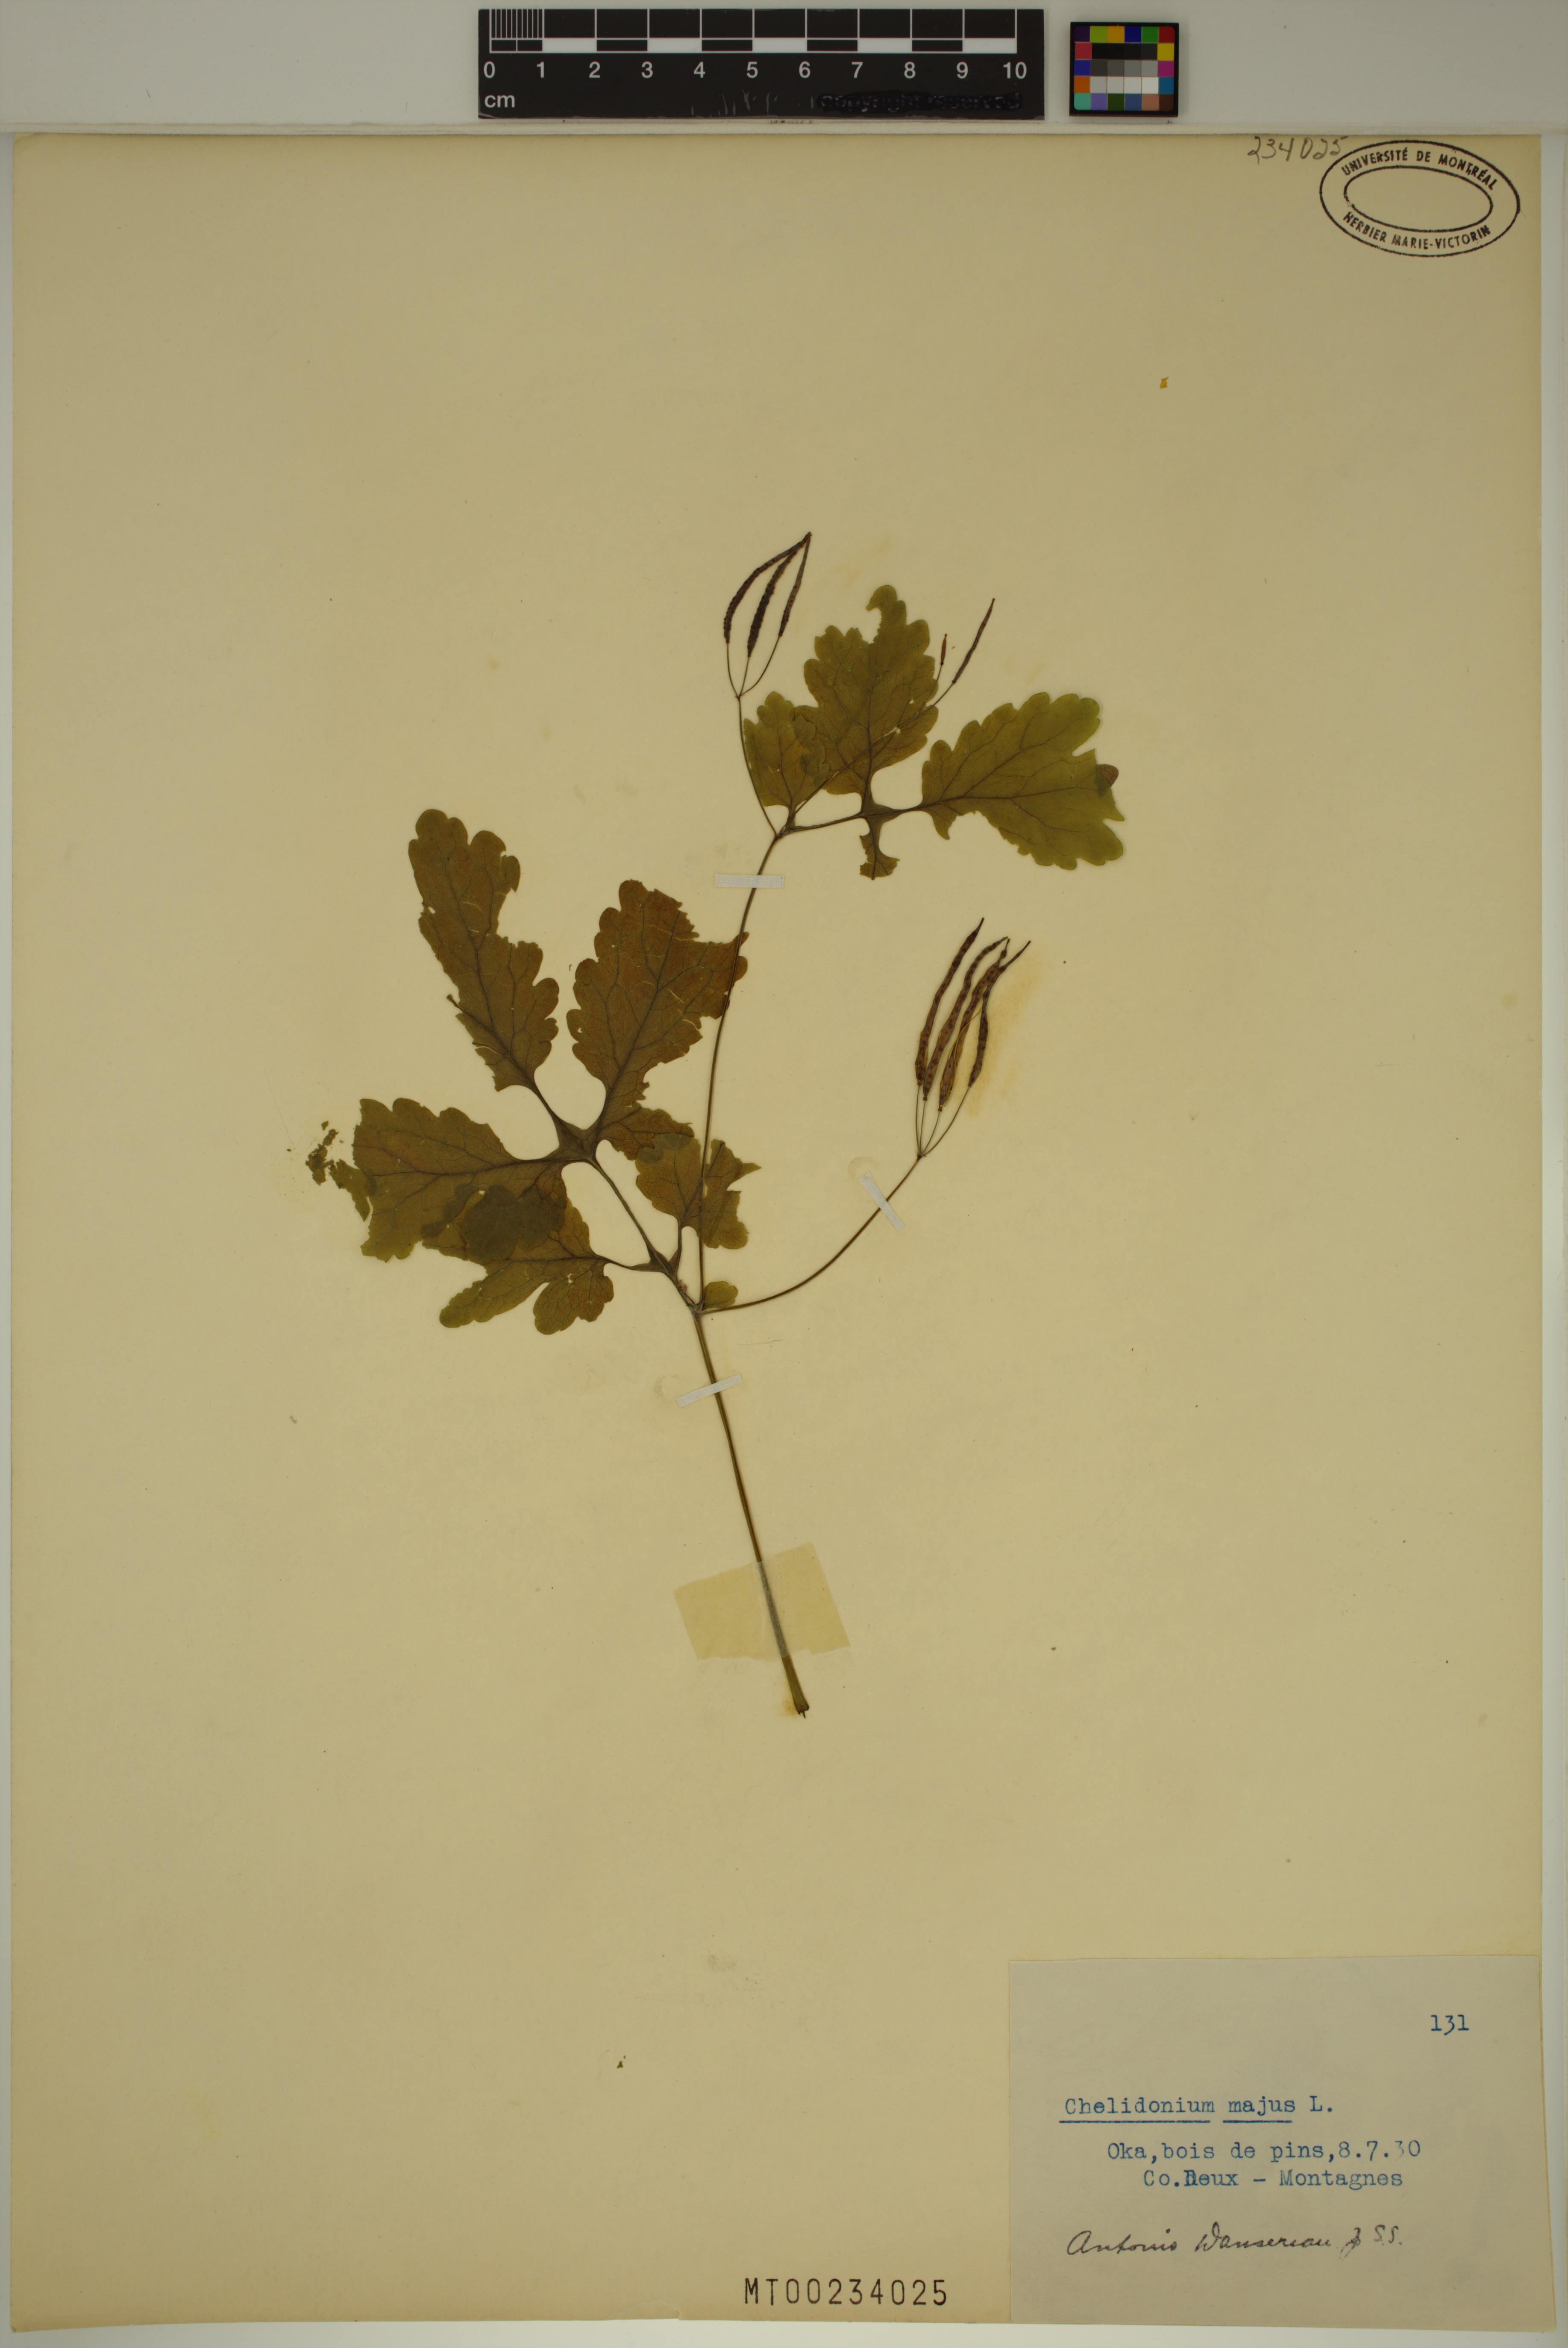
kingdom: Plantae
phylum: Tracheophyta
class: Magnoliopsida
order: Ranunculales
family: Papaveraceae
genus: Chelidonium
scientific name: Chelidonium majus
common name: Greater celandine
